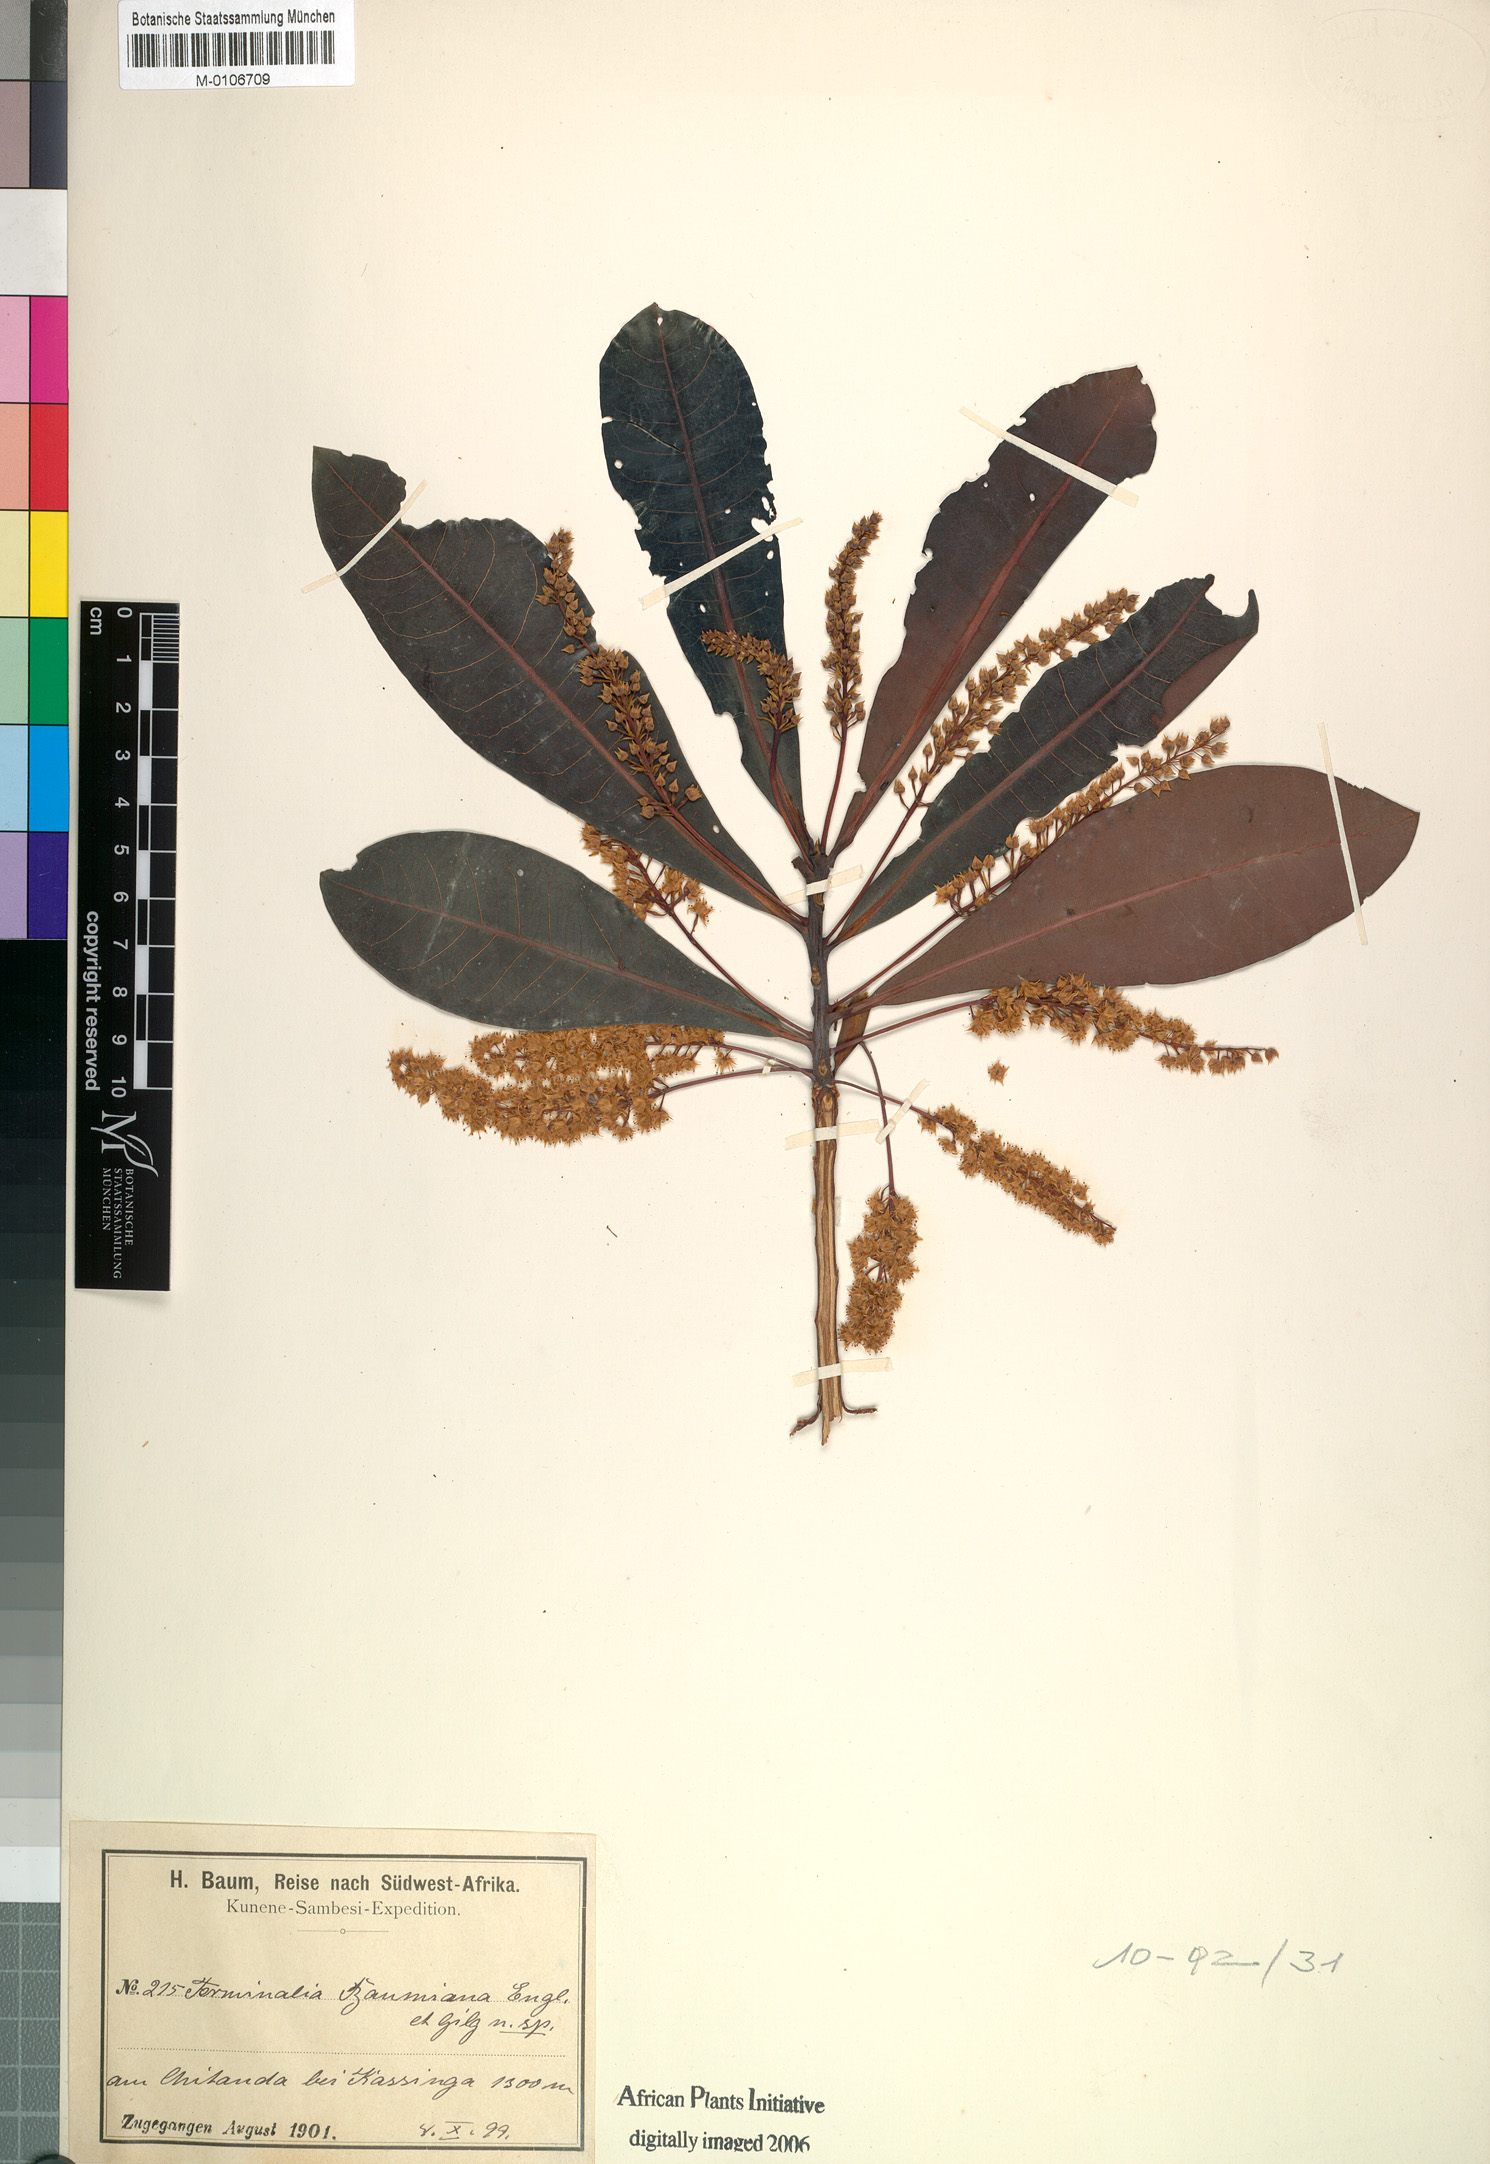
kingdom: Plantae
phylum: Tracheophyta
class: Magnoliopsida
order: Myrtales
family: Combretaceae
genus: Terminalia
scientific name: Terminalia brachystemma
